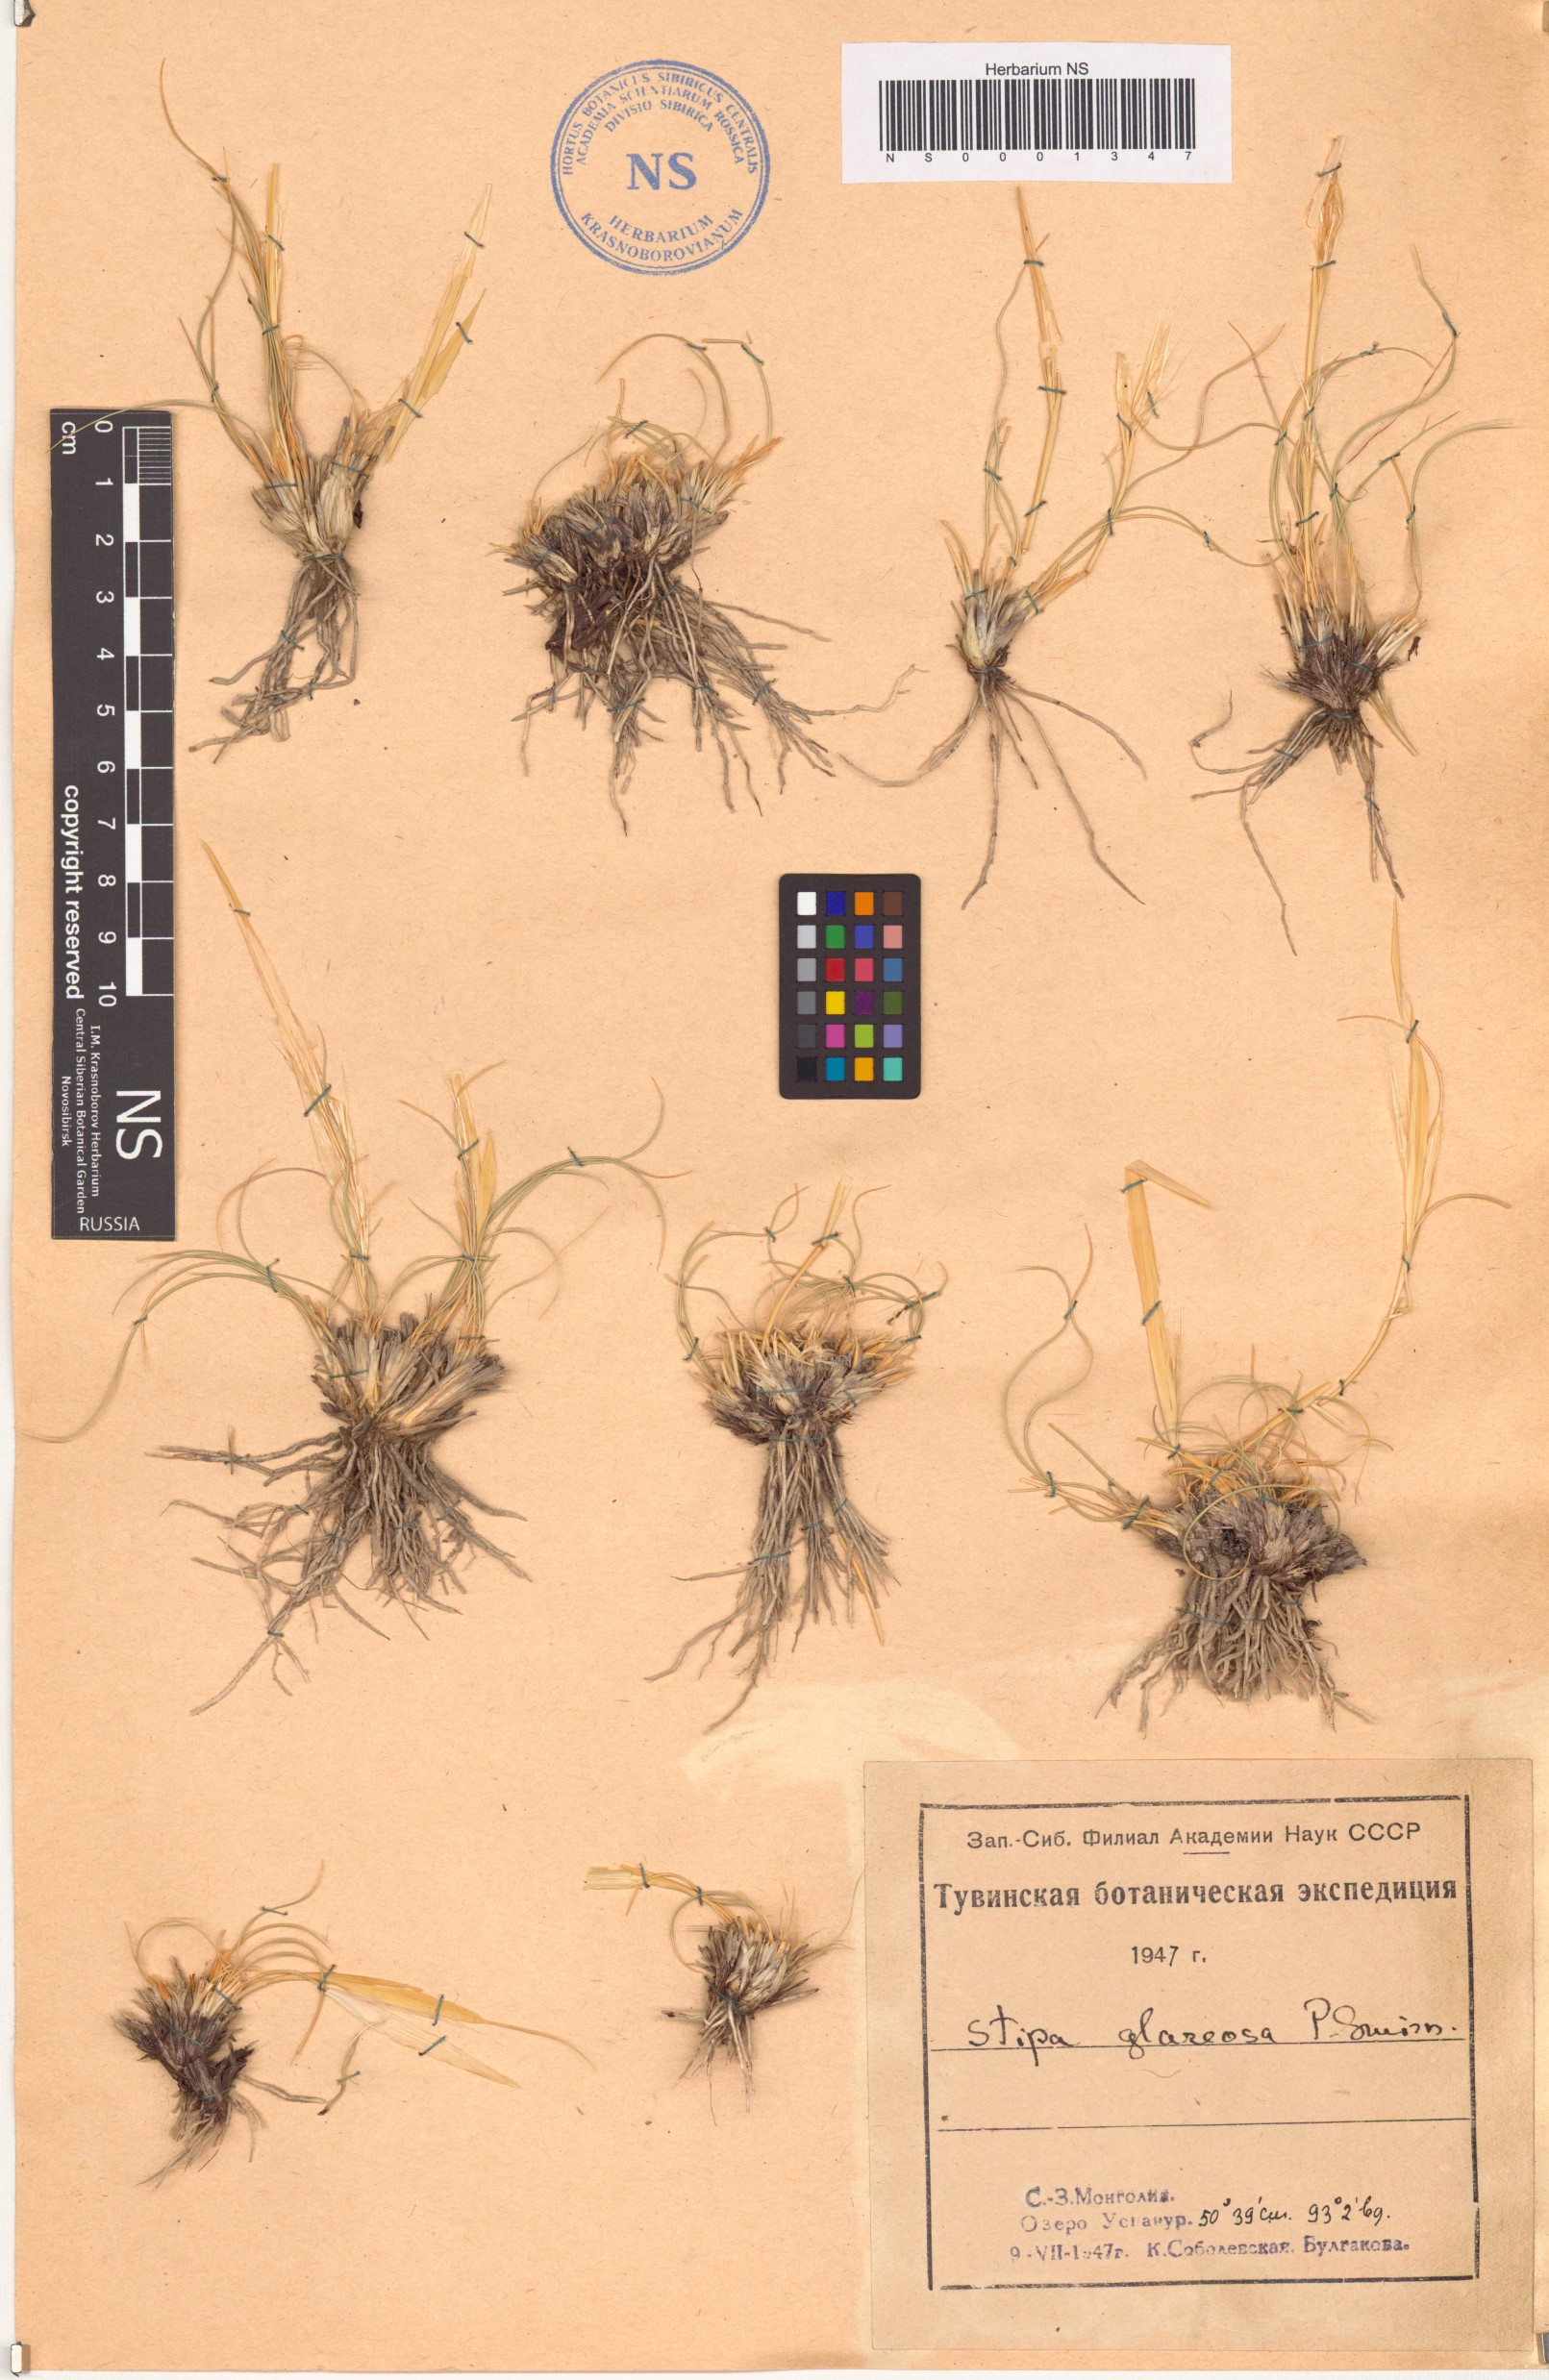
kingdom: Plantae
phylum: Tracheophyta
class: Liliopsida
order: Poales
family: Poaceae
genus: Stipa
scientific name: Stipa glareosa
